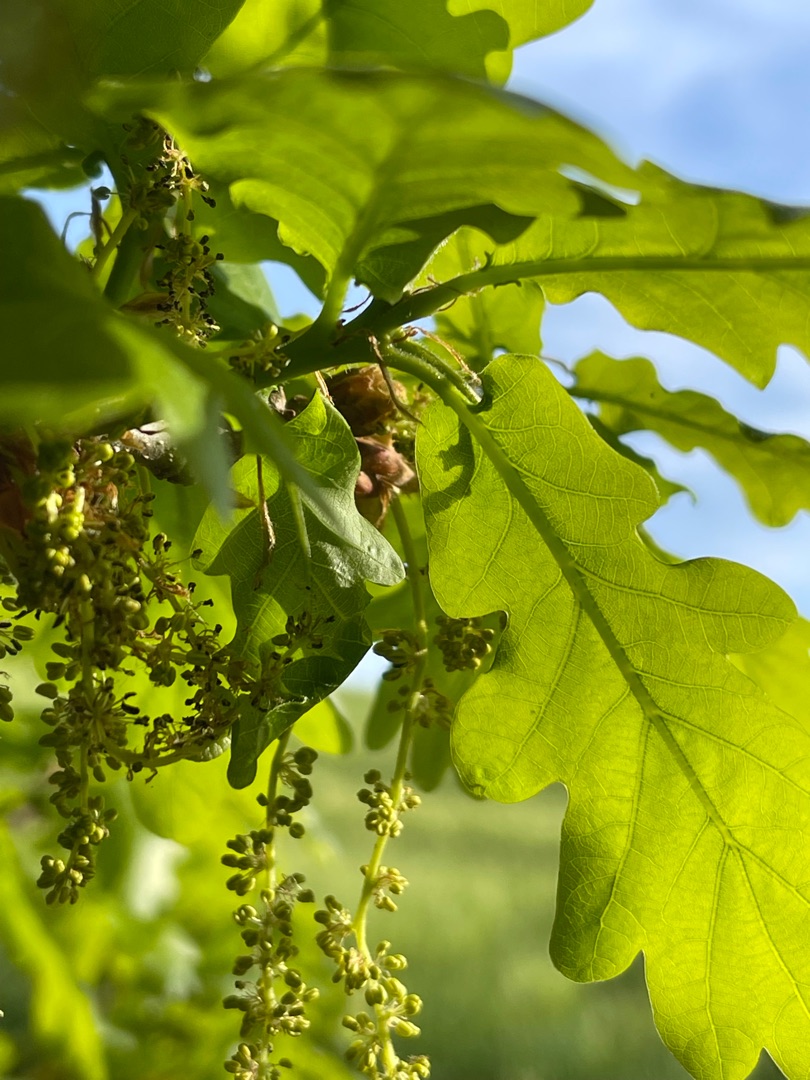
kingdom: Plantae
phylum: Tracheophyta
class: Magnoliopsida
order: Fagales
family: Fagaceae
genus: Quercus
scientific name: Quercus robur
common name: Stilk-eg/almindelig eg
